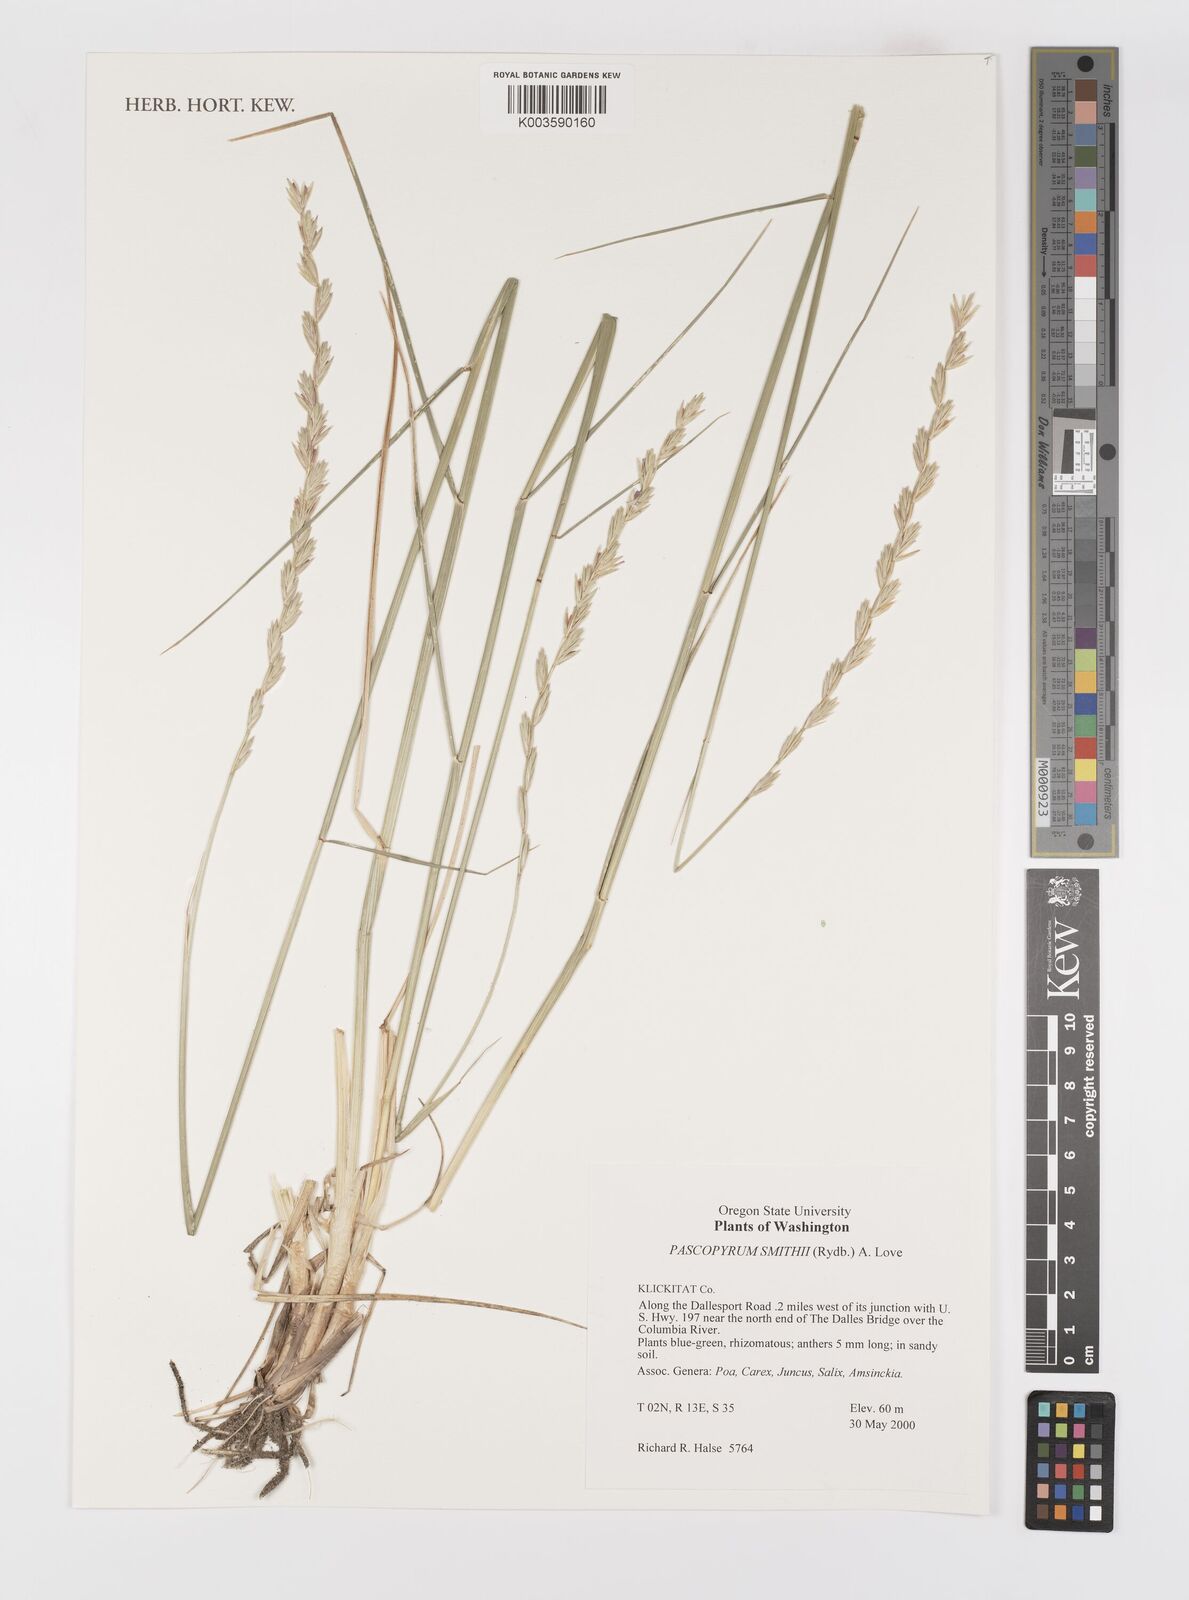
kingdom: Plantae
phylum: Tracheophyta
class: Liliopsida
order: Poales
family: Poaceae
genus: Elymus
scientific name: Elymus smithii
